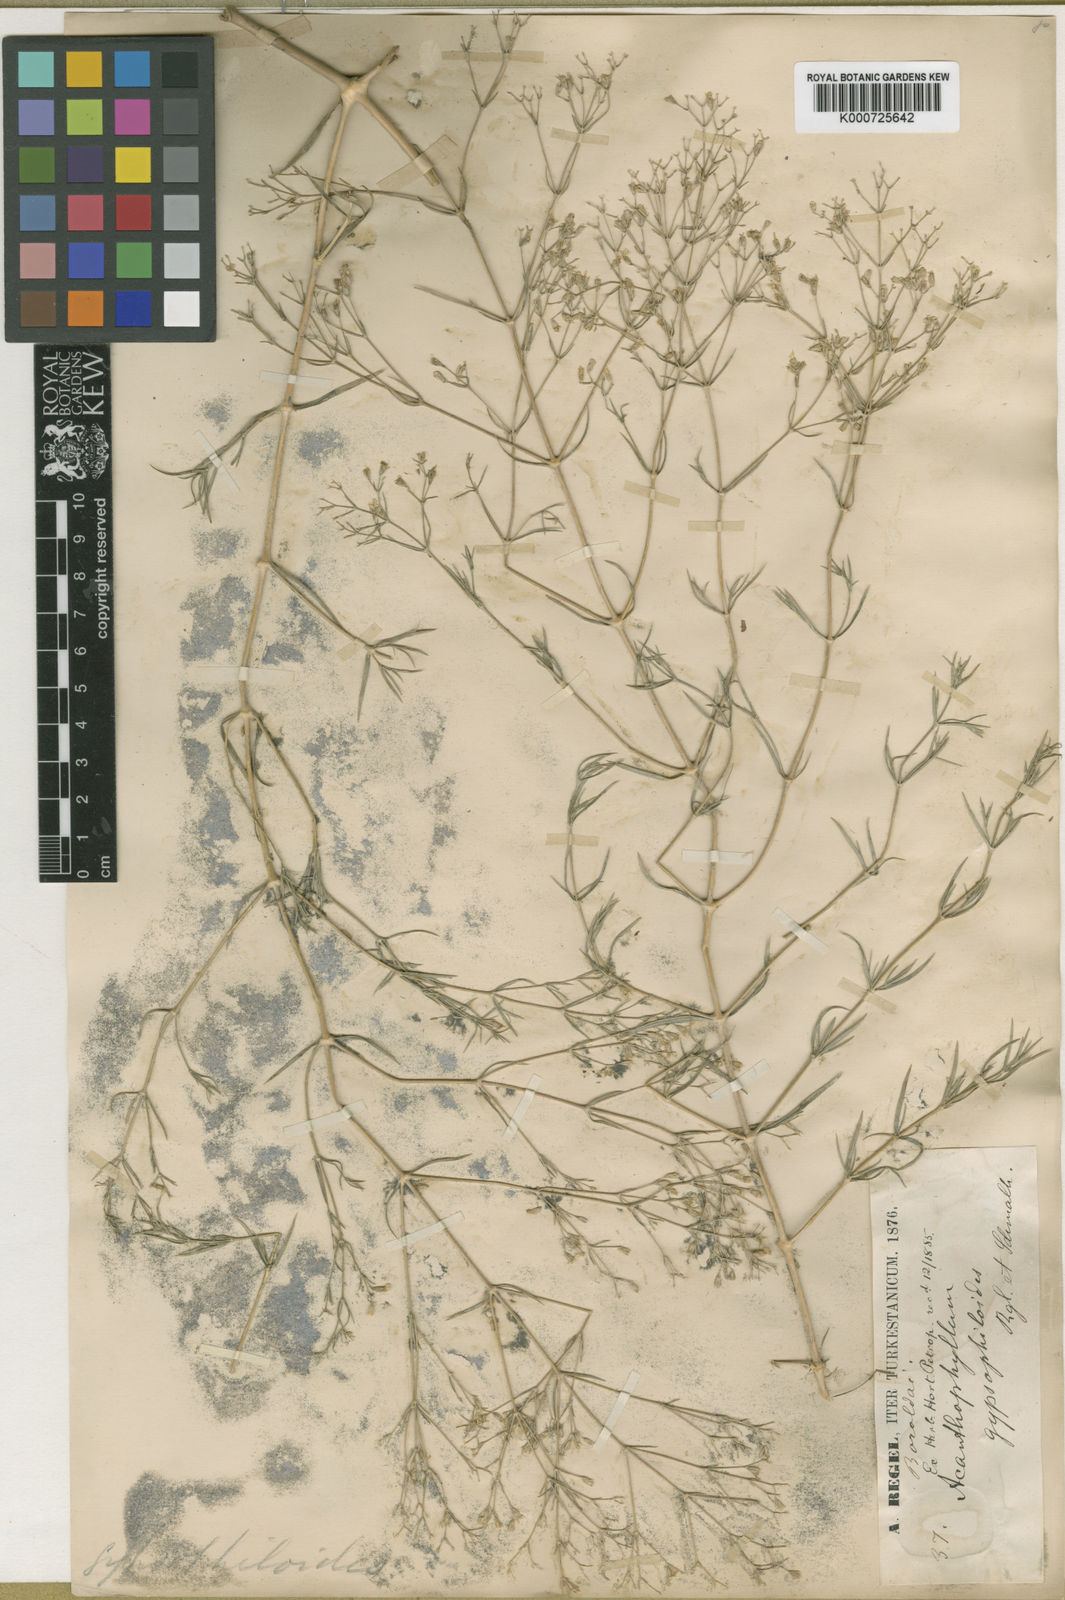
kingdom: Plantae
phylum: Tracheophyta
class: Magnoliopsida
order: Caryophyllales
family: Caryophyllaceae
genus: Acanthophyllum
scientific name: Acanthophyllum gypsophiloides
